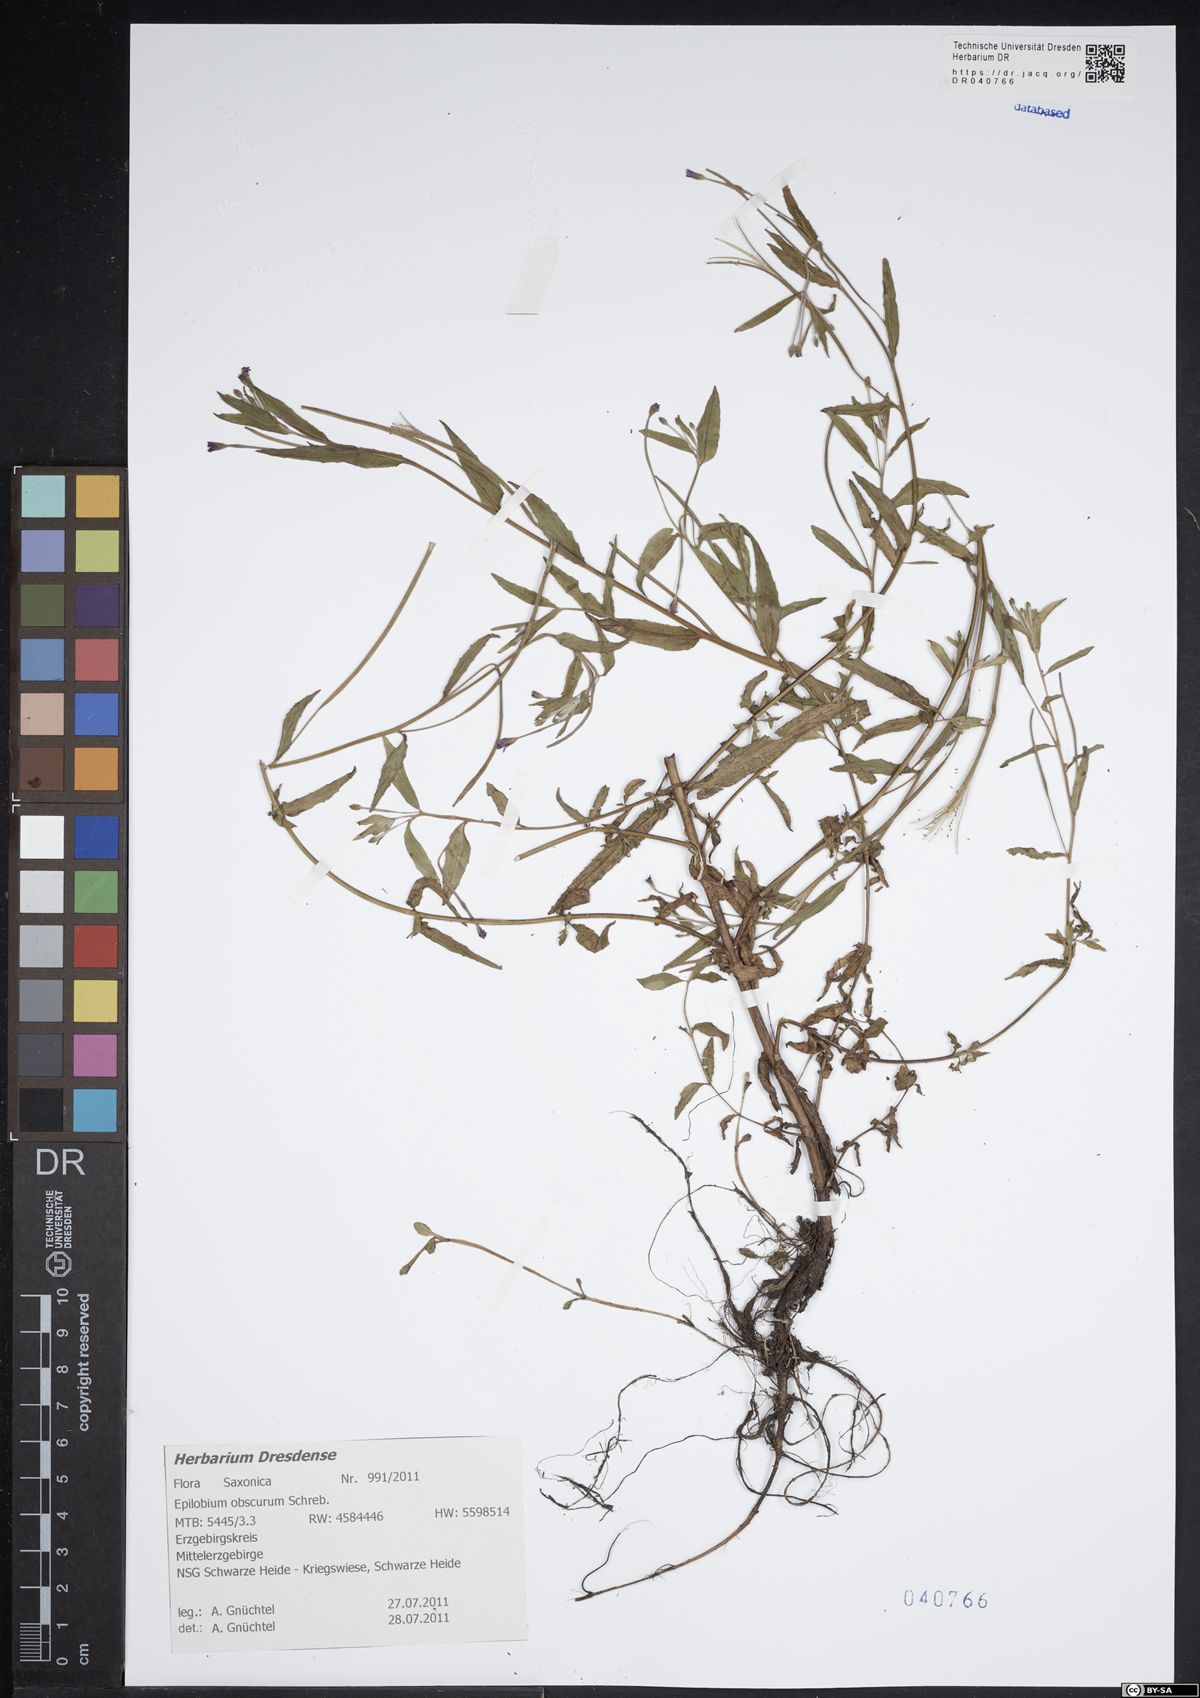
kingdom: Plantae
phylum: Tracheophyta
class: Magnoliopsida
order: Myrtales
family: Onagraceae
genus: Epilobium
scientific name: Epilobium obscurum
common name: Short-fruited willowherb
